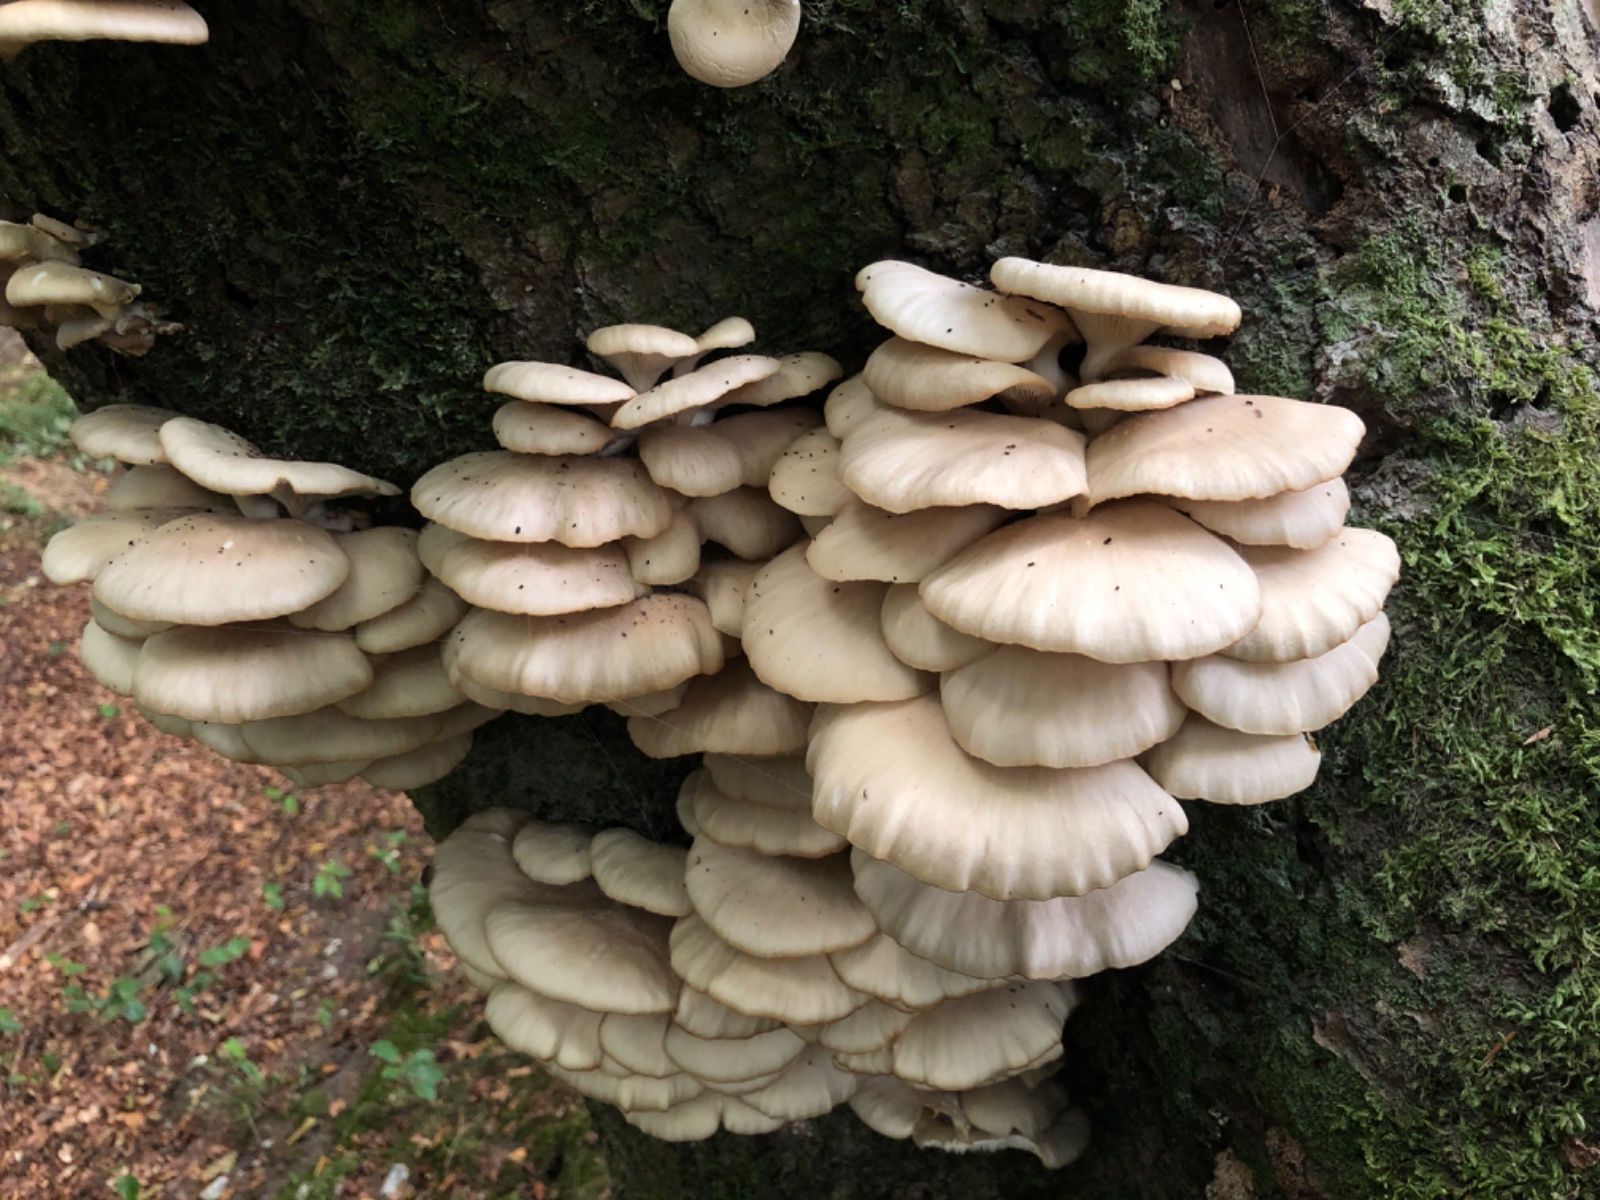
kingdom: Fungi
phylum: Basidiomycota
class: Agaricomycetes
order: Agaricales
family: Pleurotaceae
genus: Pleurotus
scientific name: Pleurotus pulmonarius
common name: sommer-østershat
